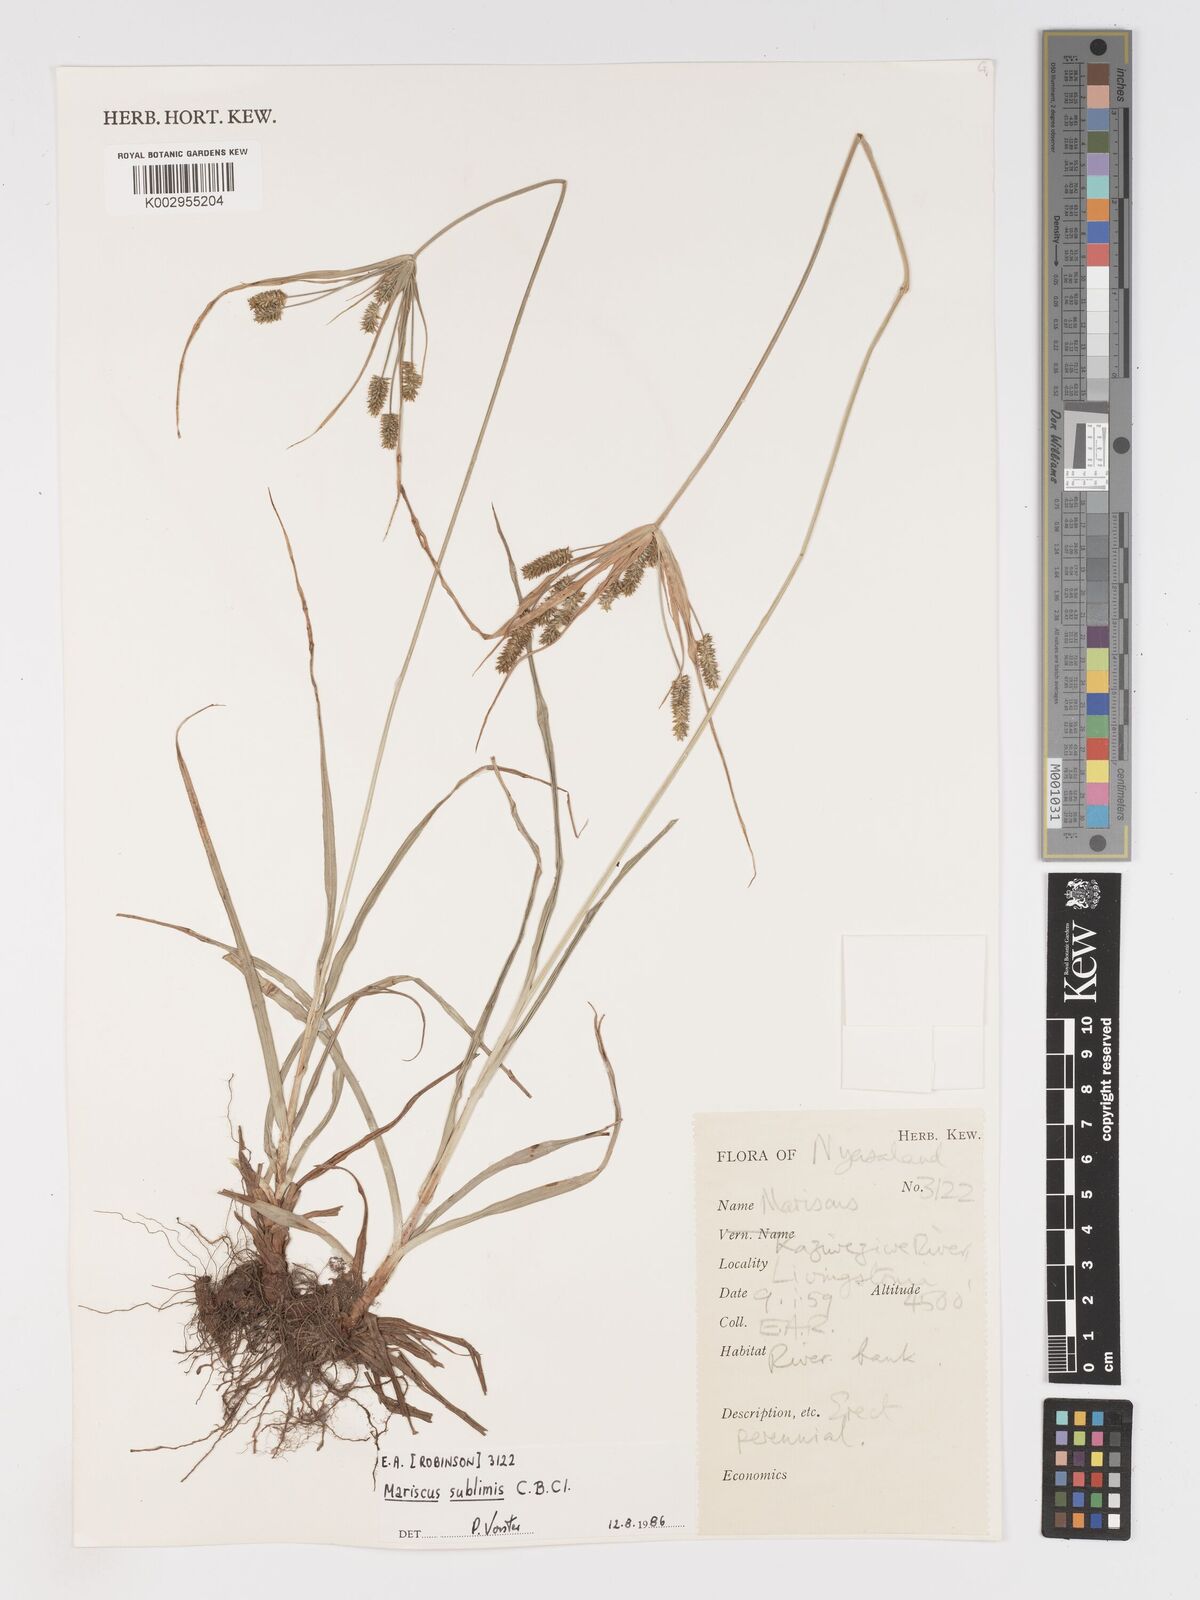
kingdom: Plantae
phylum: Tracheophyta
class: Liliopsida
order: Poales
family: Cyperaceae
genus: Cyperus
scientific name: Cyperus
